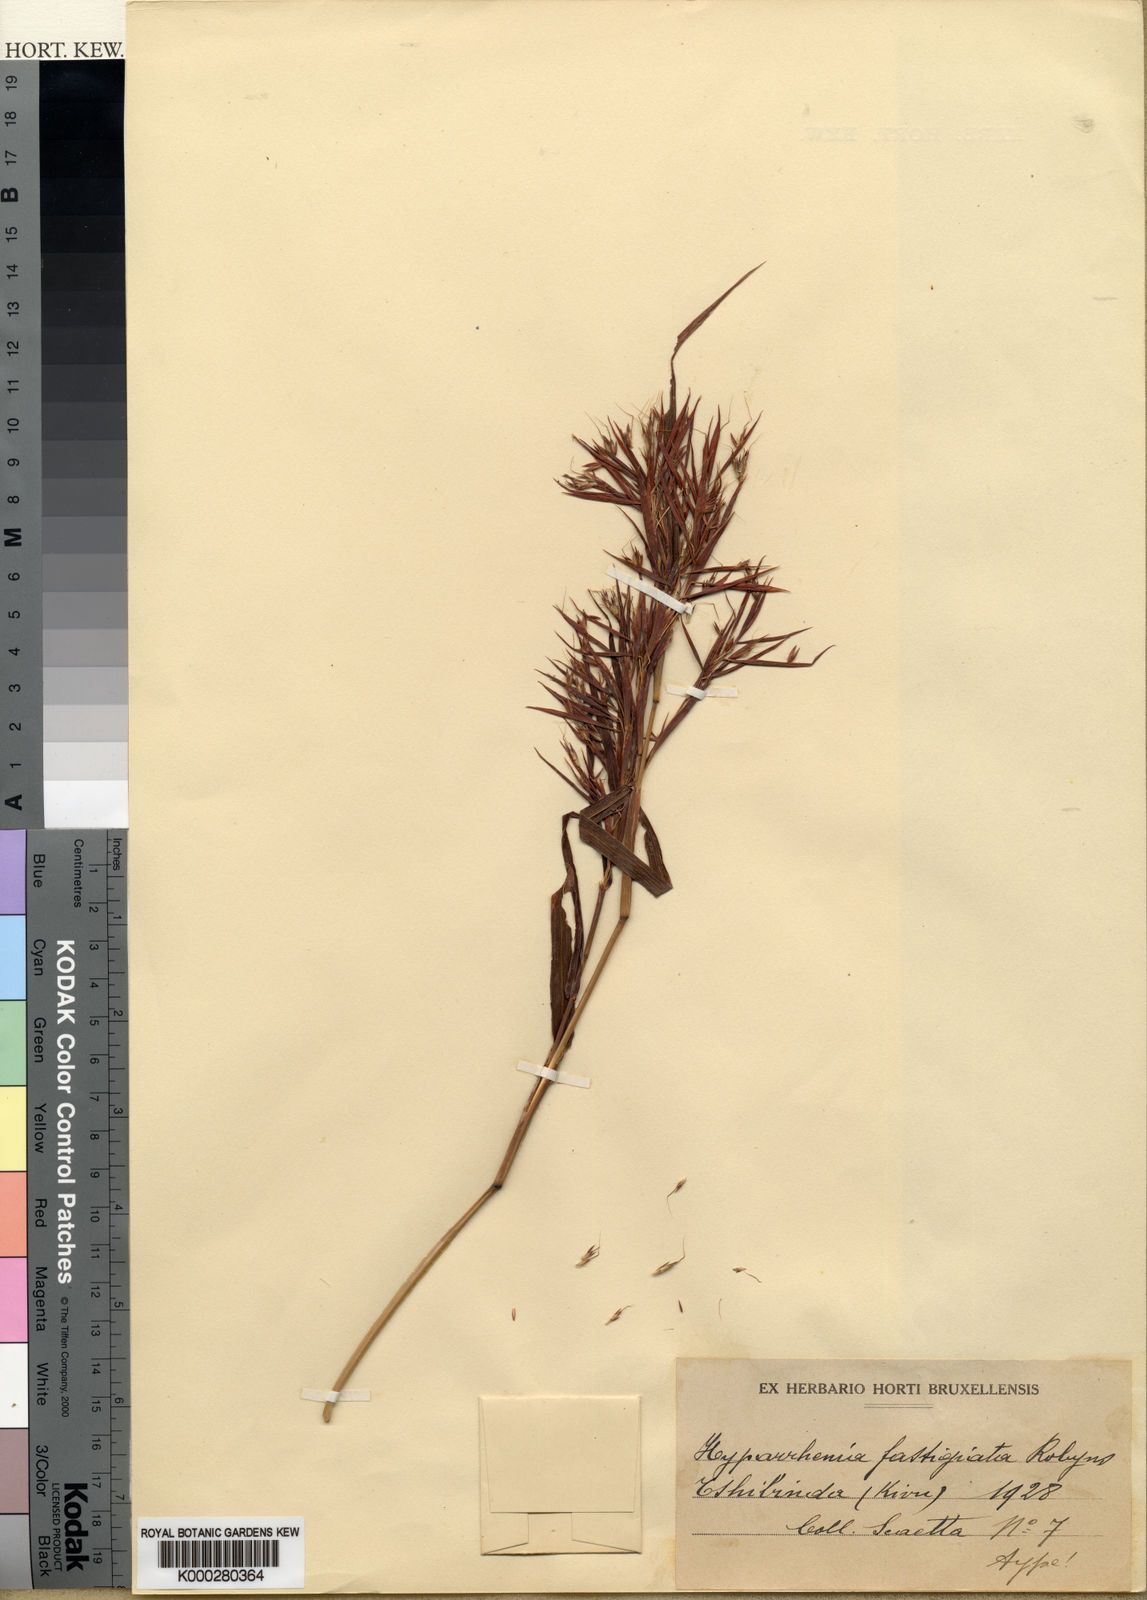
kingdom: Plantae
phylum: Tracheophyta
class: Liliopsida
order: Poales
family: Poaceae
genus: Hyparrhenia
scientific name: Hyparrhenia dichroa
